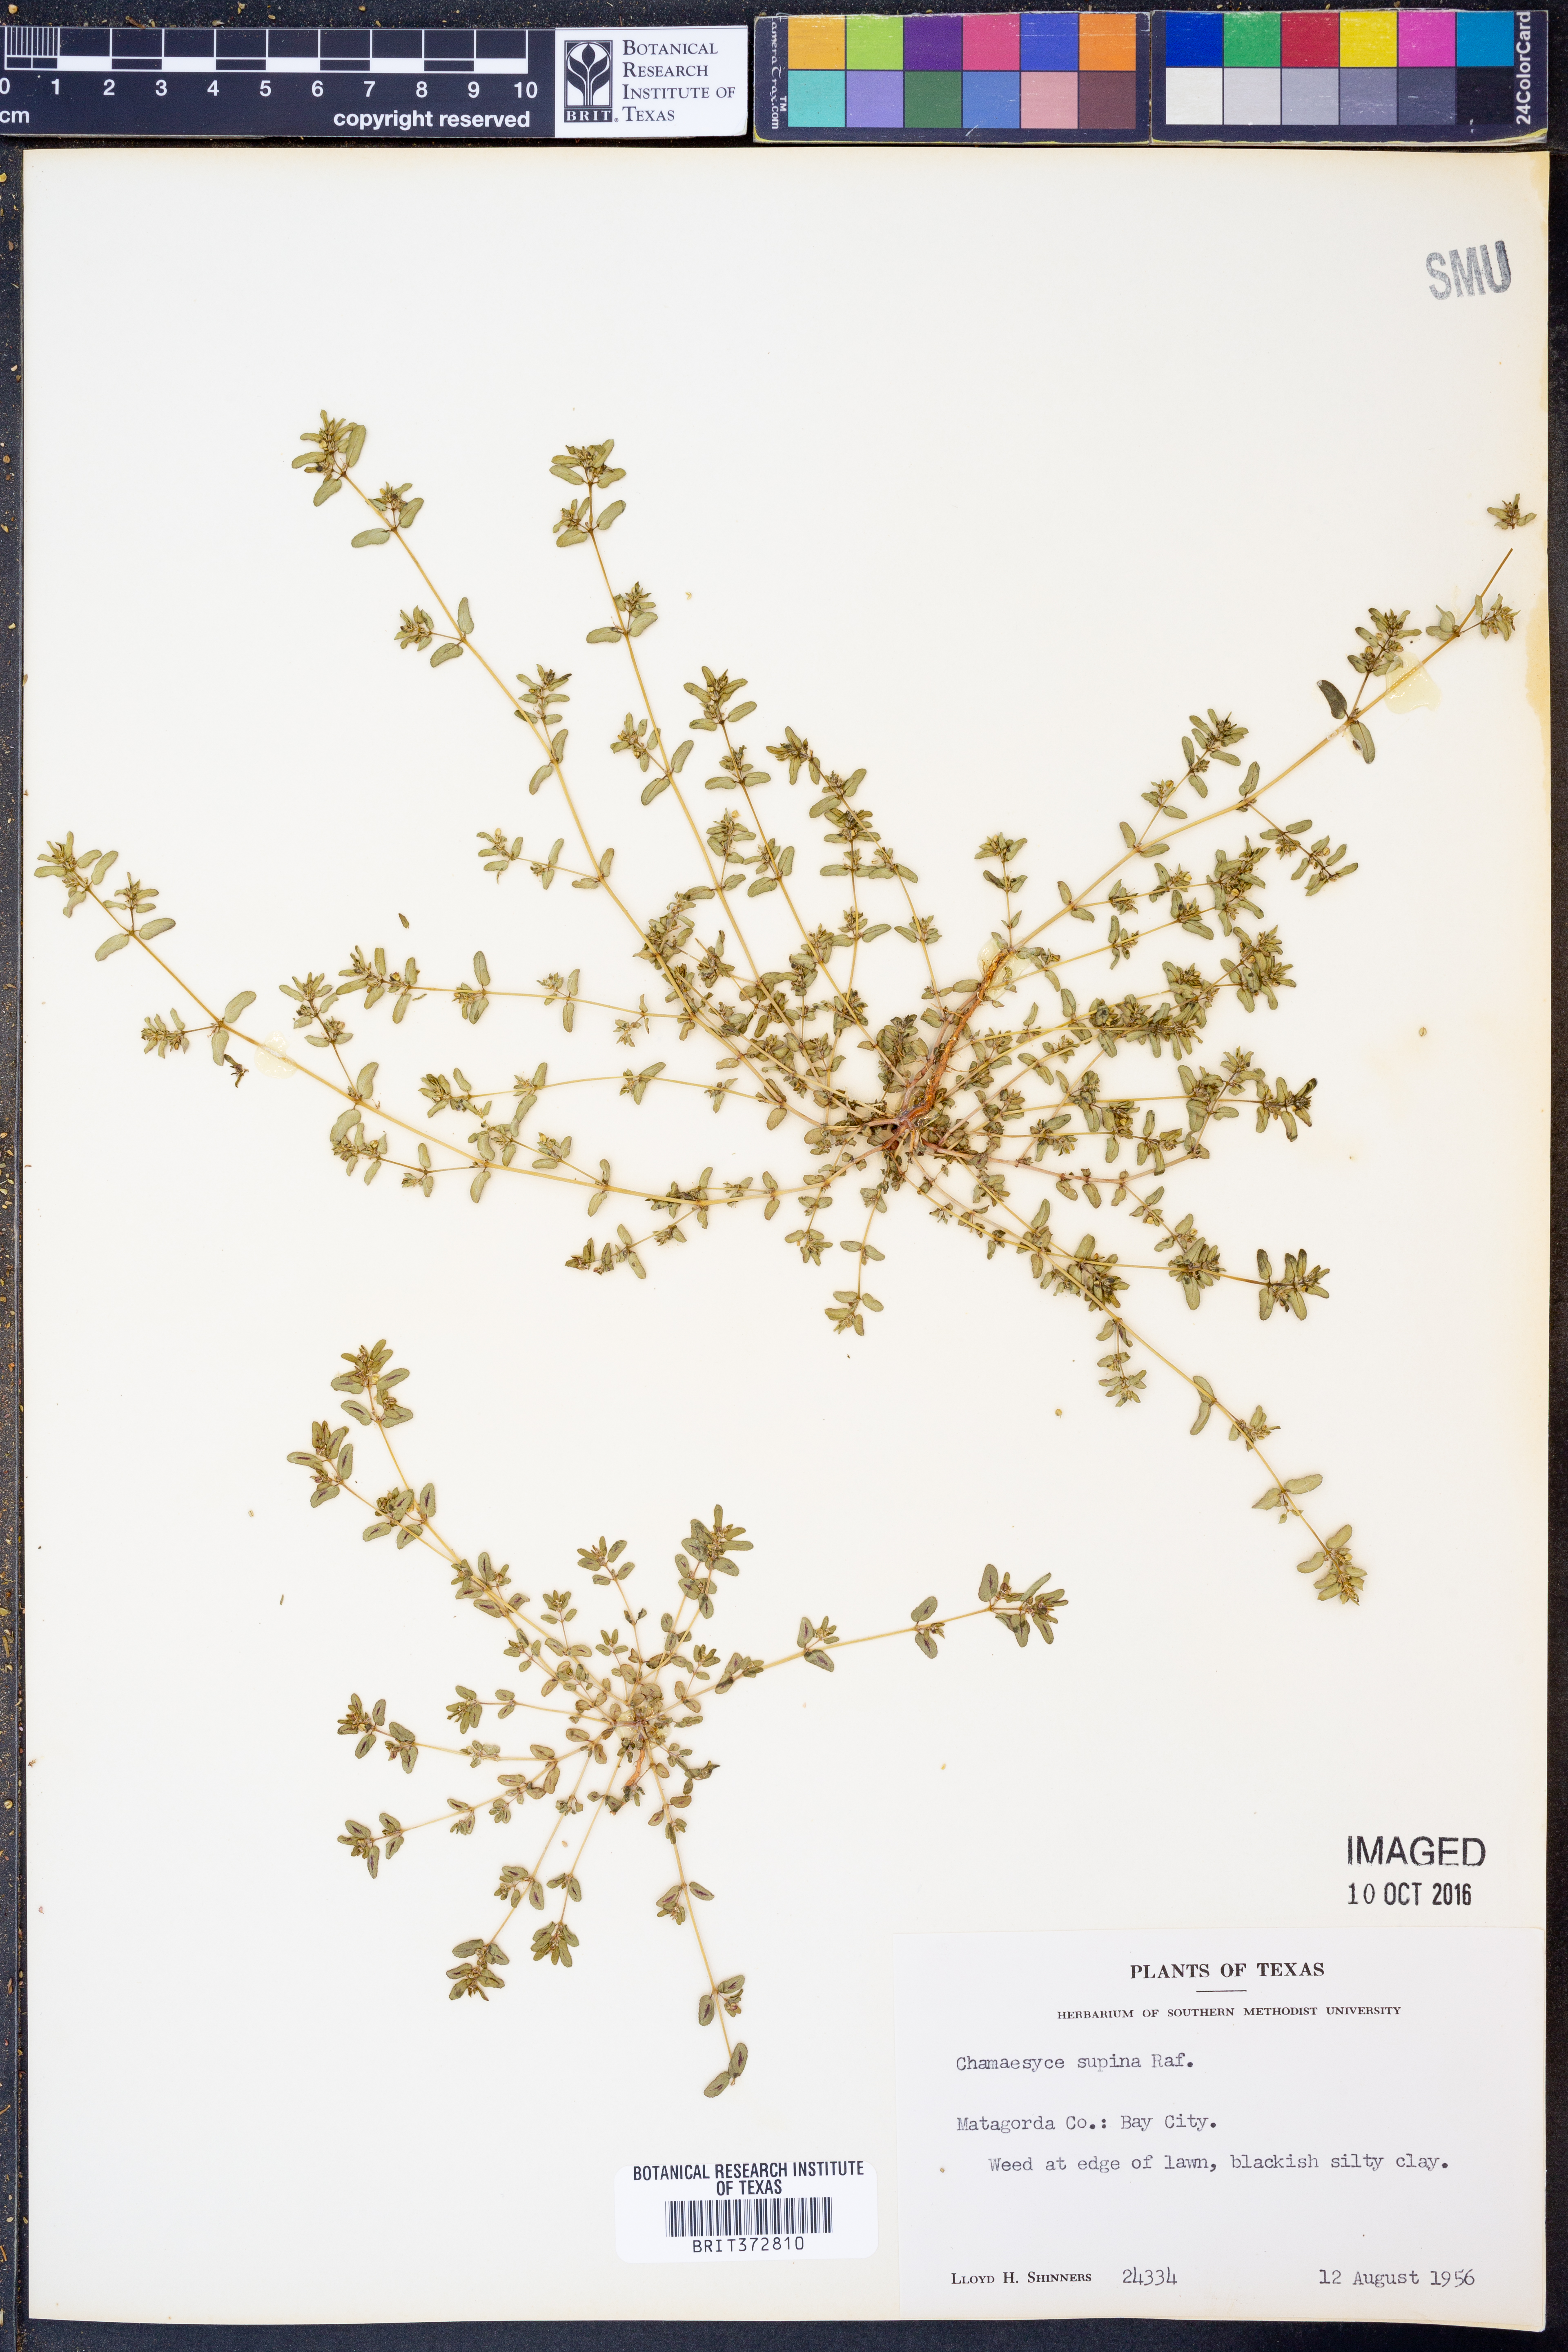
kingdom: Plantae
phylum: Tracheophyta
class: Magnoliopsida
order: Malpighiales
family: Euphorbiaceae
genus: Euphorbia
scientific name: Euphorbia maculata
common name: Spotted spurge
